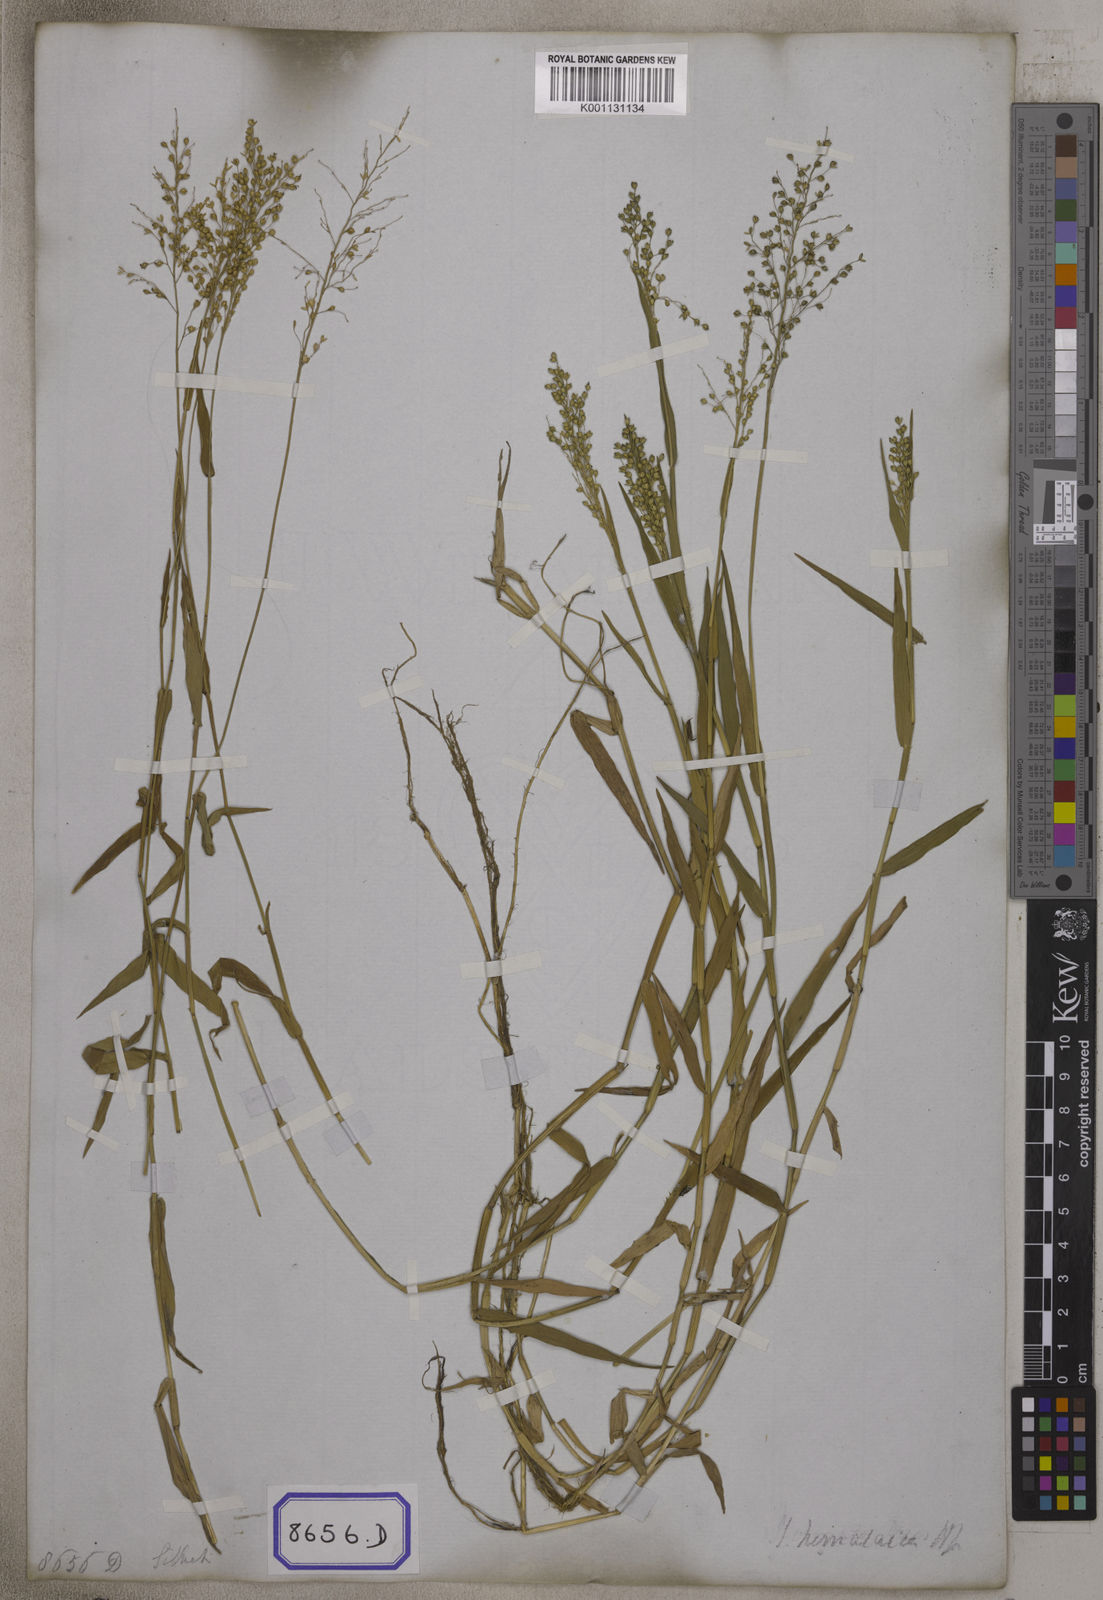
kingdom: Plantae
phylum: Tracheophyta
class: Liliopsida
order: Poales
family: Poaceae
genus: Isachne
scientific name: Isachne
